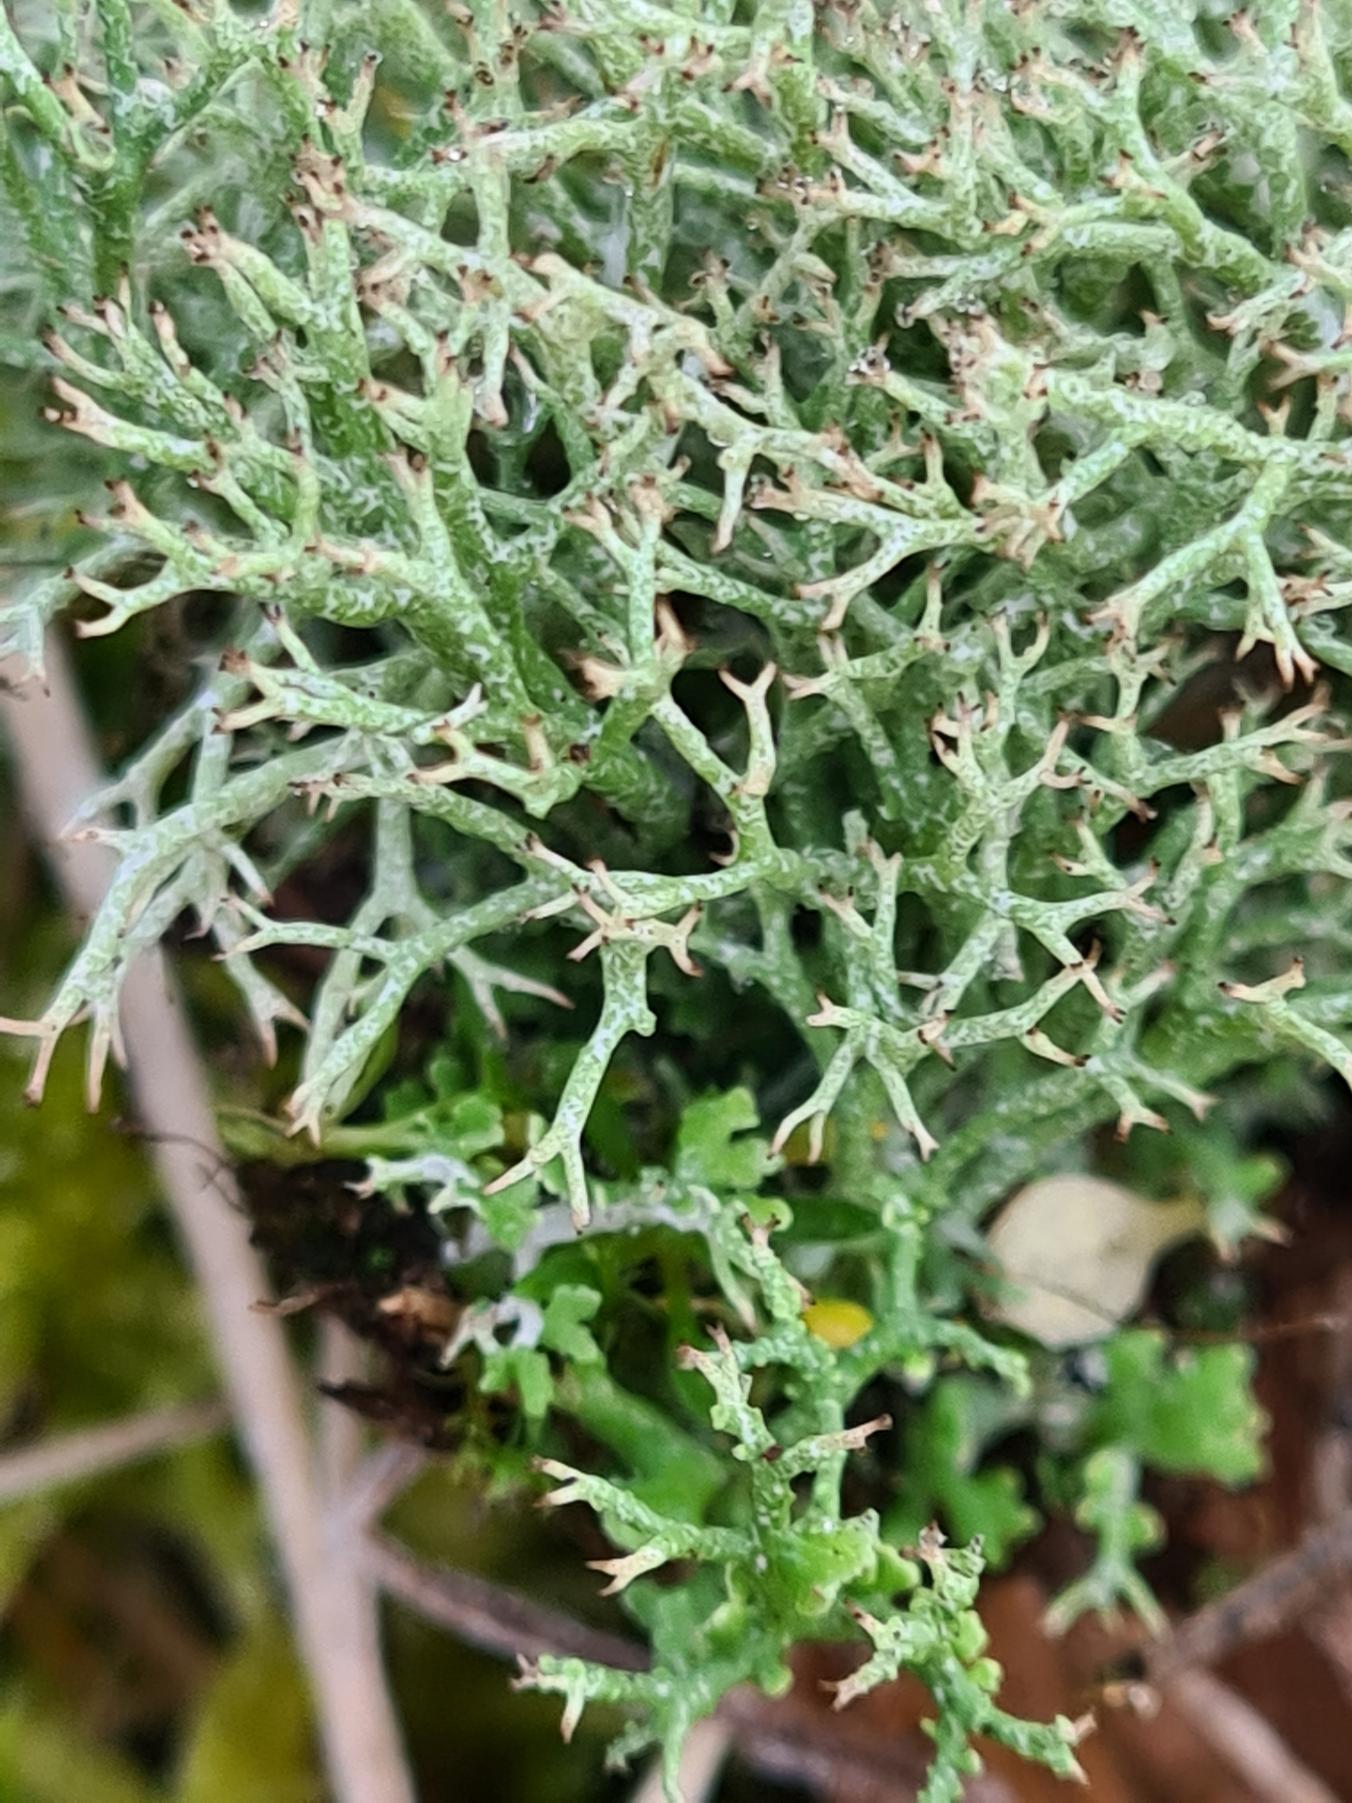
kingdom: Fungi
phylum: Ascomycota
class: Lecanoromycetes
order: Lecanorales
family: Cladoniaceae
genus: Cladonia
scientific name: Cladonia rangiformis
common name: Spættet bægerlav
